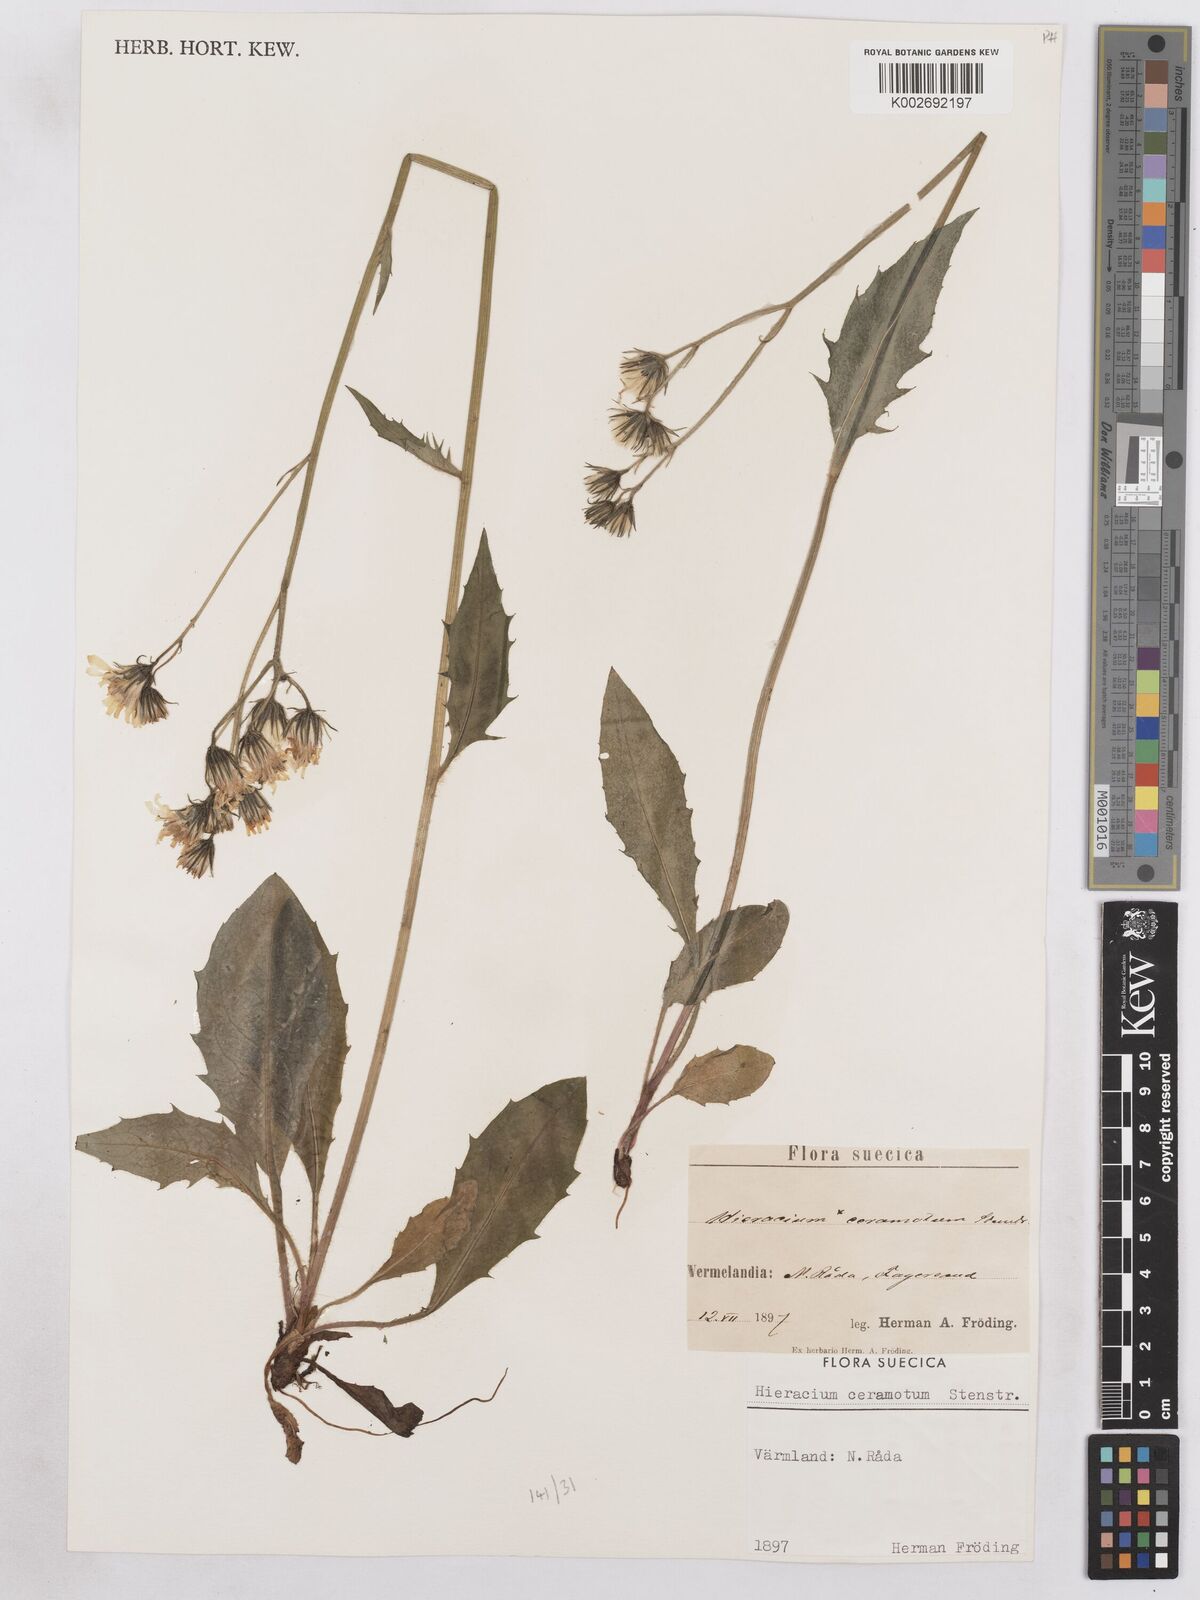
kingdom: Plantae
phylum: Tracheophyta
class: Magnoliopsida
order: Asterales
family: Asteraceae
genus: Hieracium
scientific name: Hieracium diaphanoides
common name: Fine-bracted hawkweed
